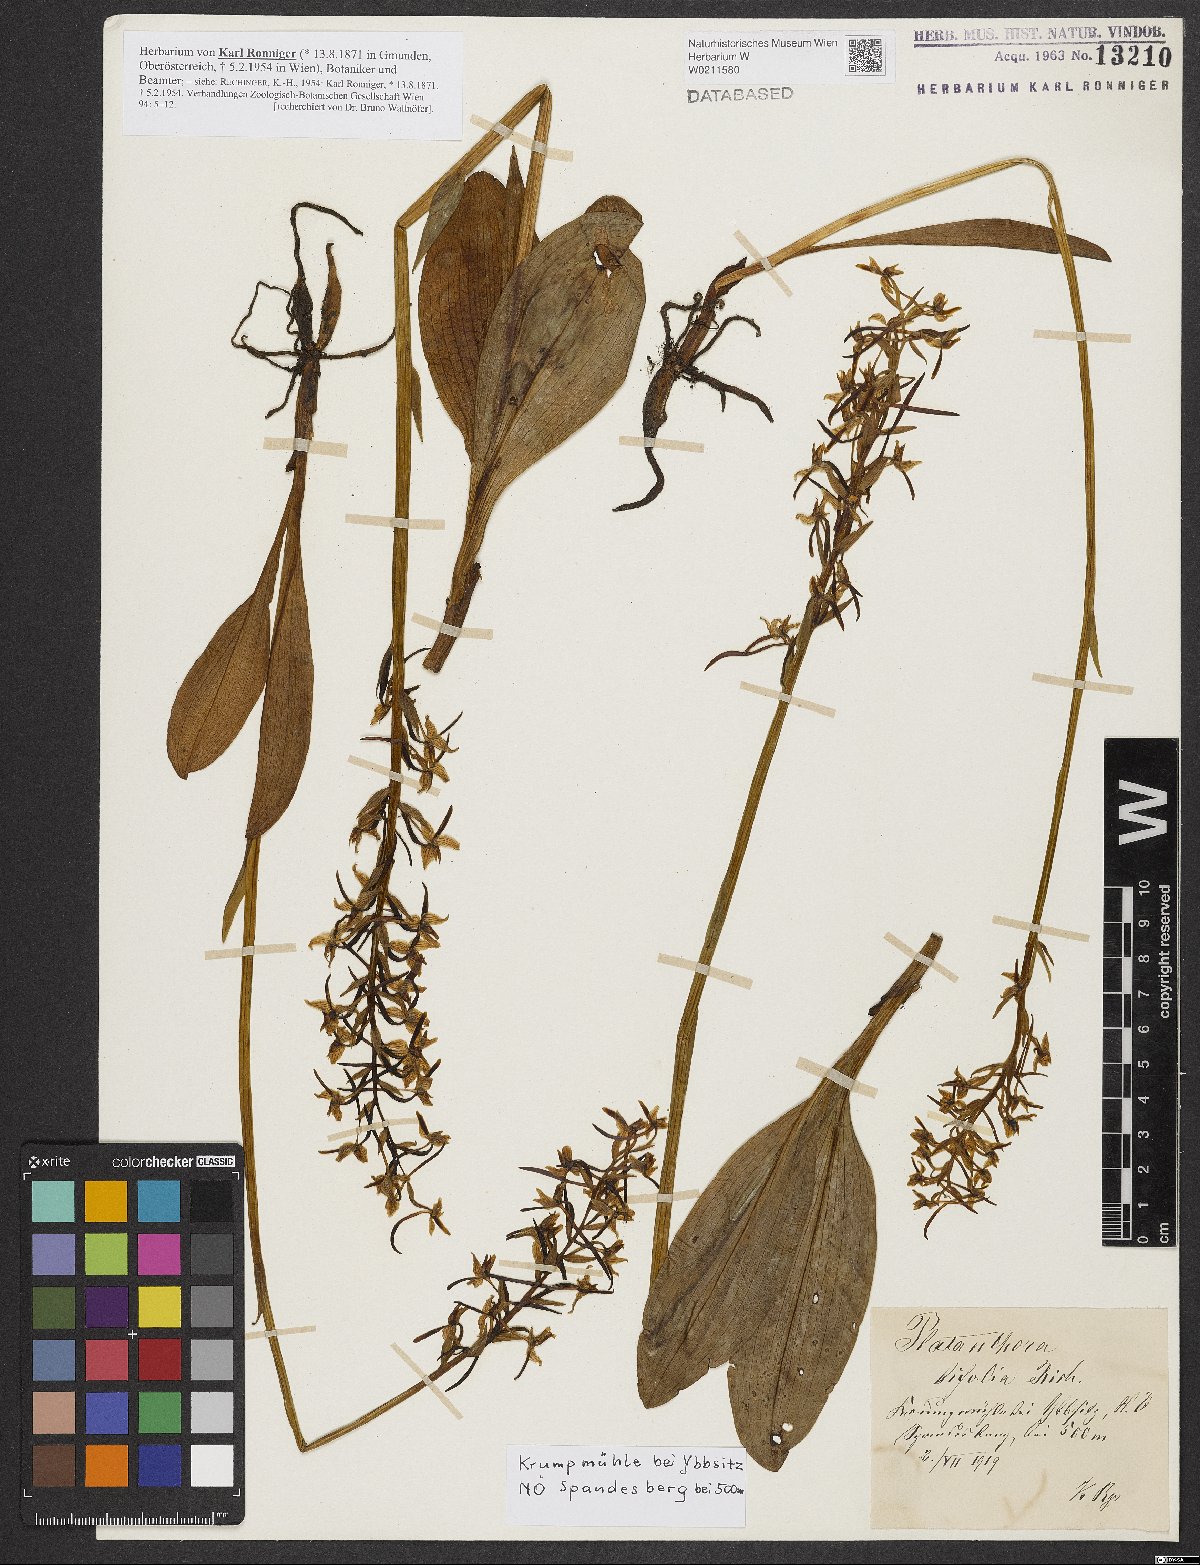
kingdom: Plantae
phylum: Tracheophyta
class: Liliopsida
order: Asparagales
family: Orchidaceae
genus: Platanthera
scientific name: Platanthera bifolia
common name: Lesser butterfly-orchid
